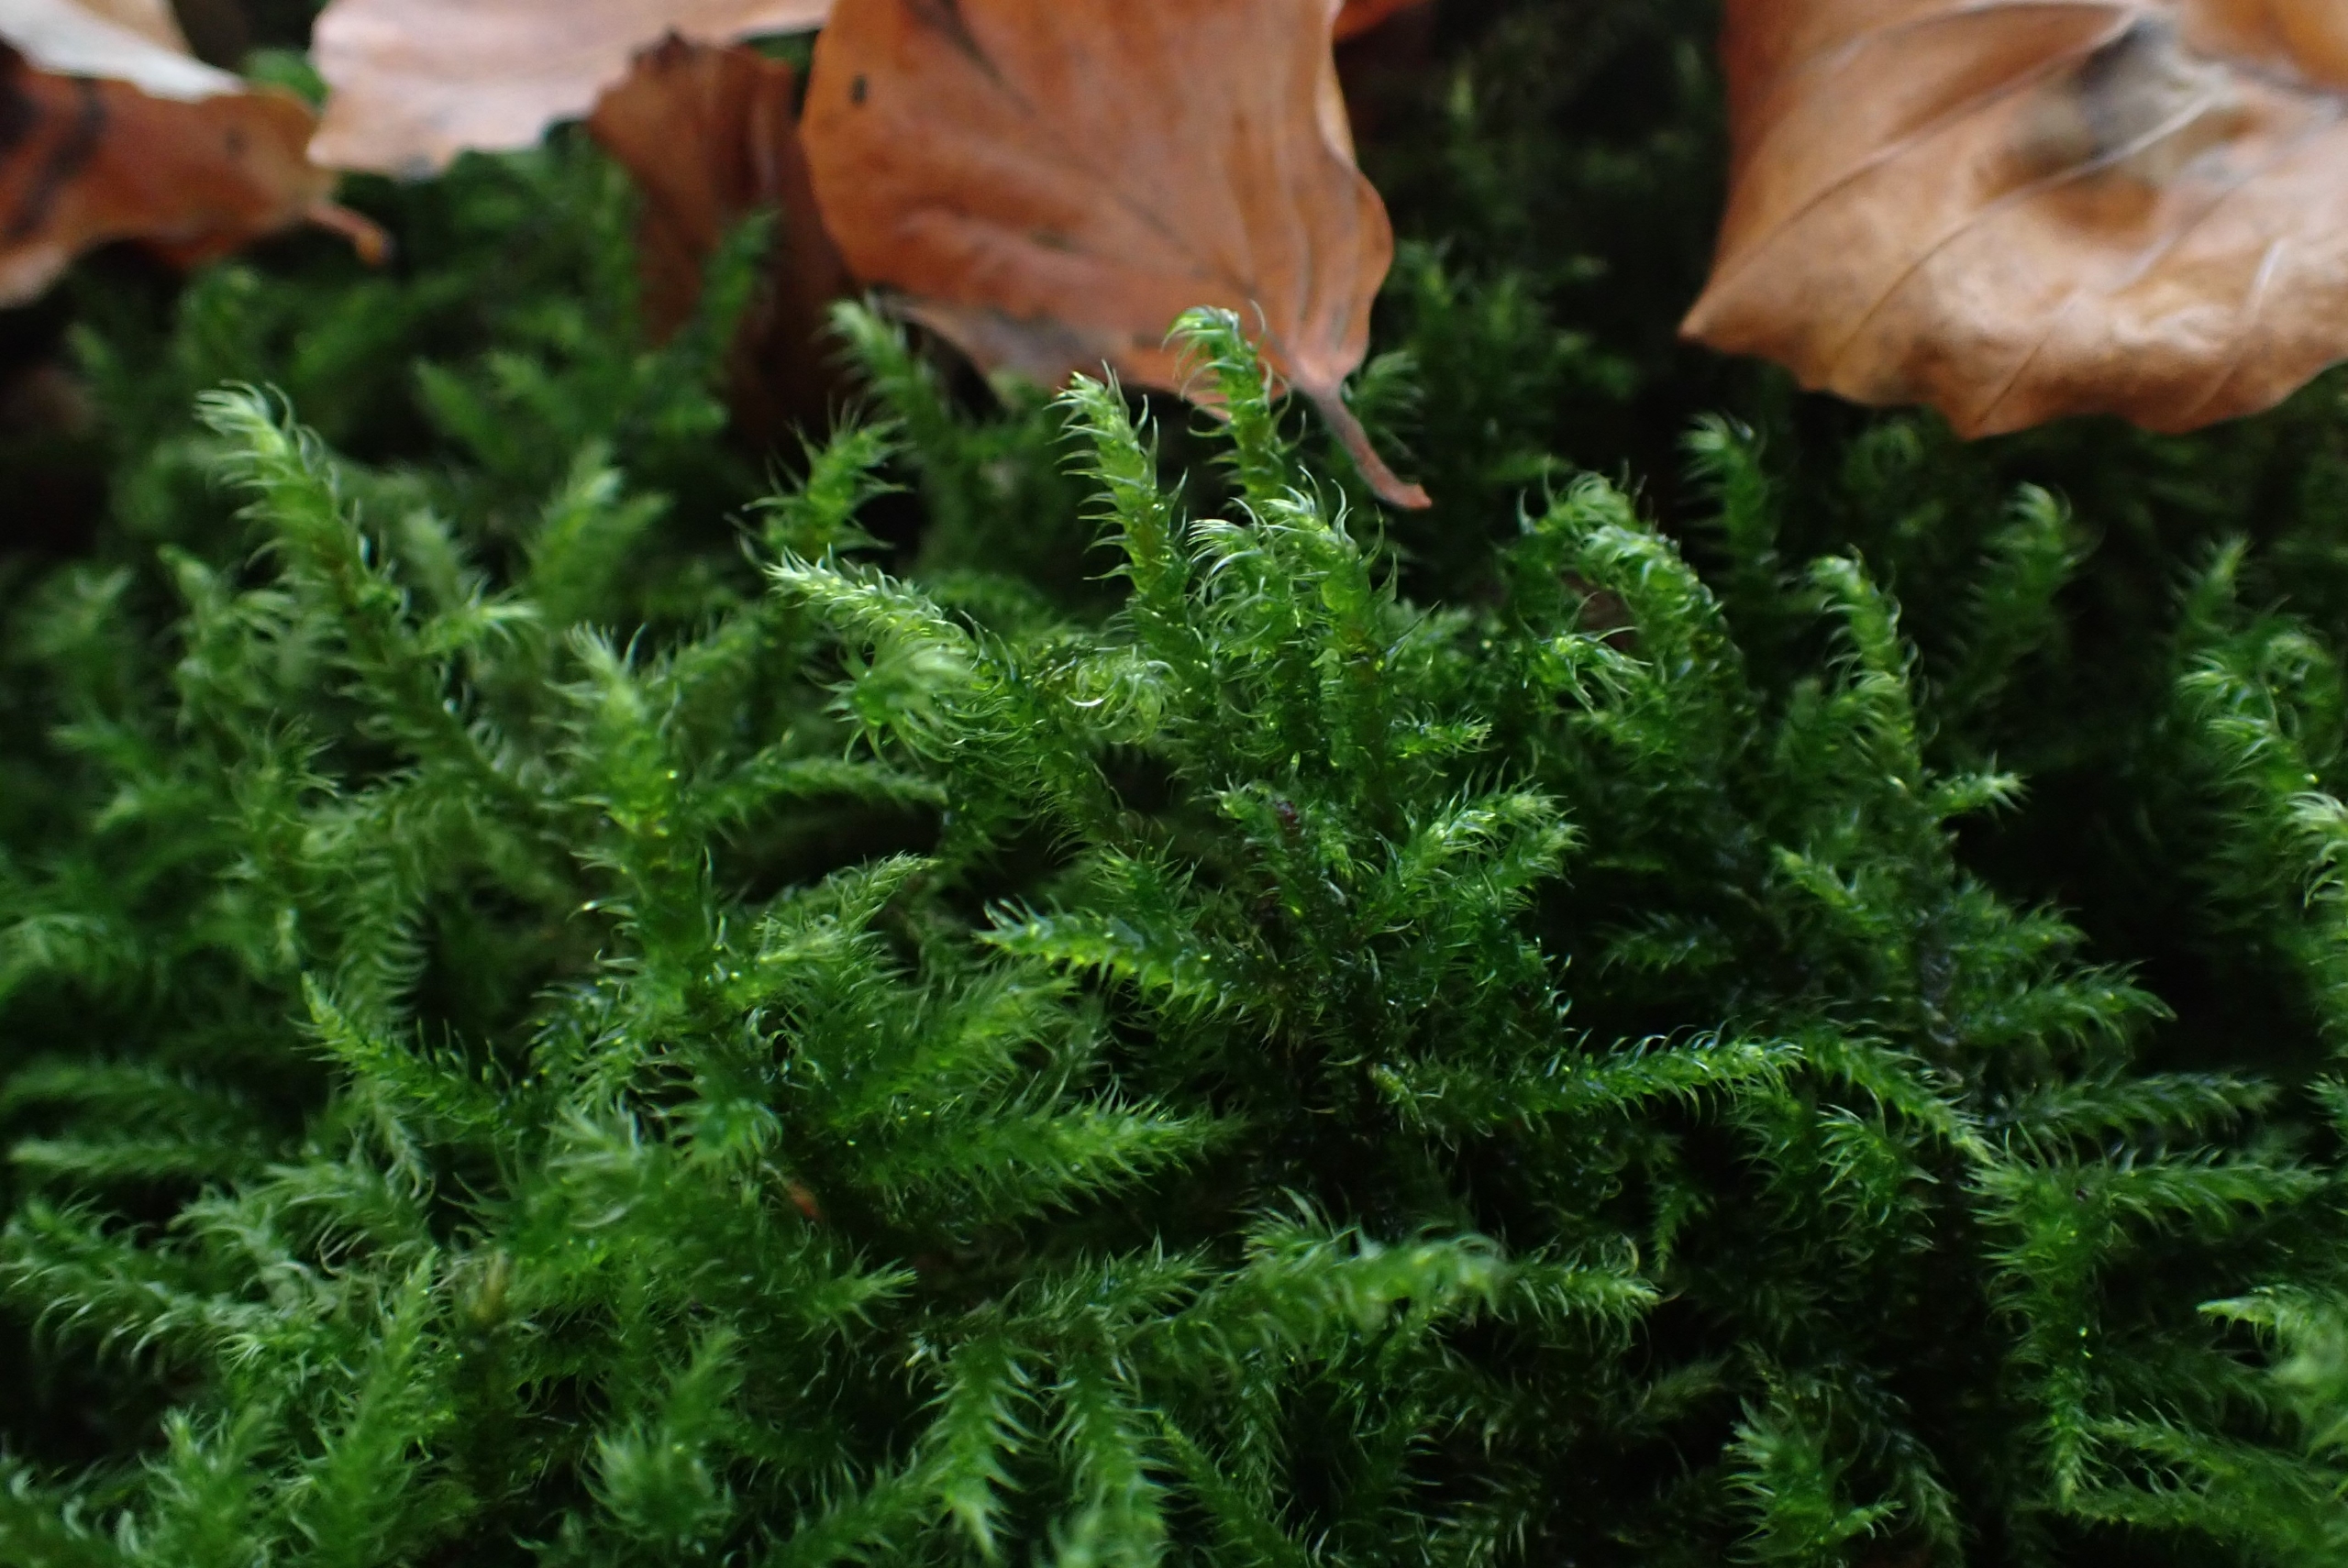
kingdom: Plantae
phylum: Bryophyta
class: Bryopsida
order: Hypnales
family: Hylocomiaceae
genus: Rhytidiadelphus
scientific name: Rhytidiadelphus loreus
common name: Ulvefod-kransemos
